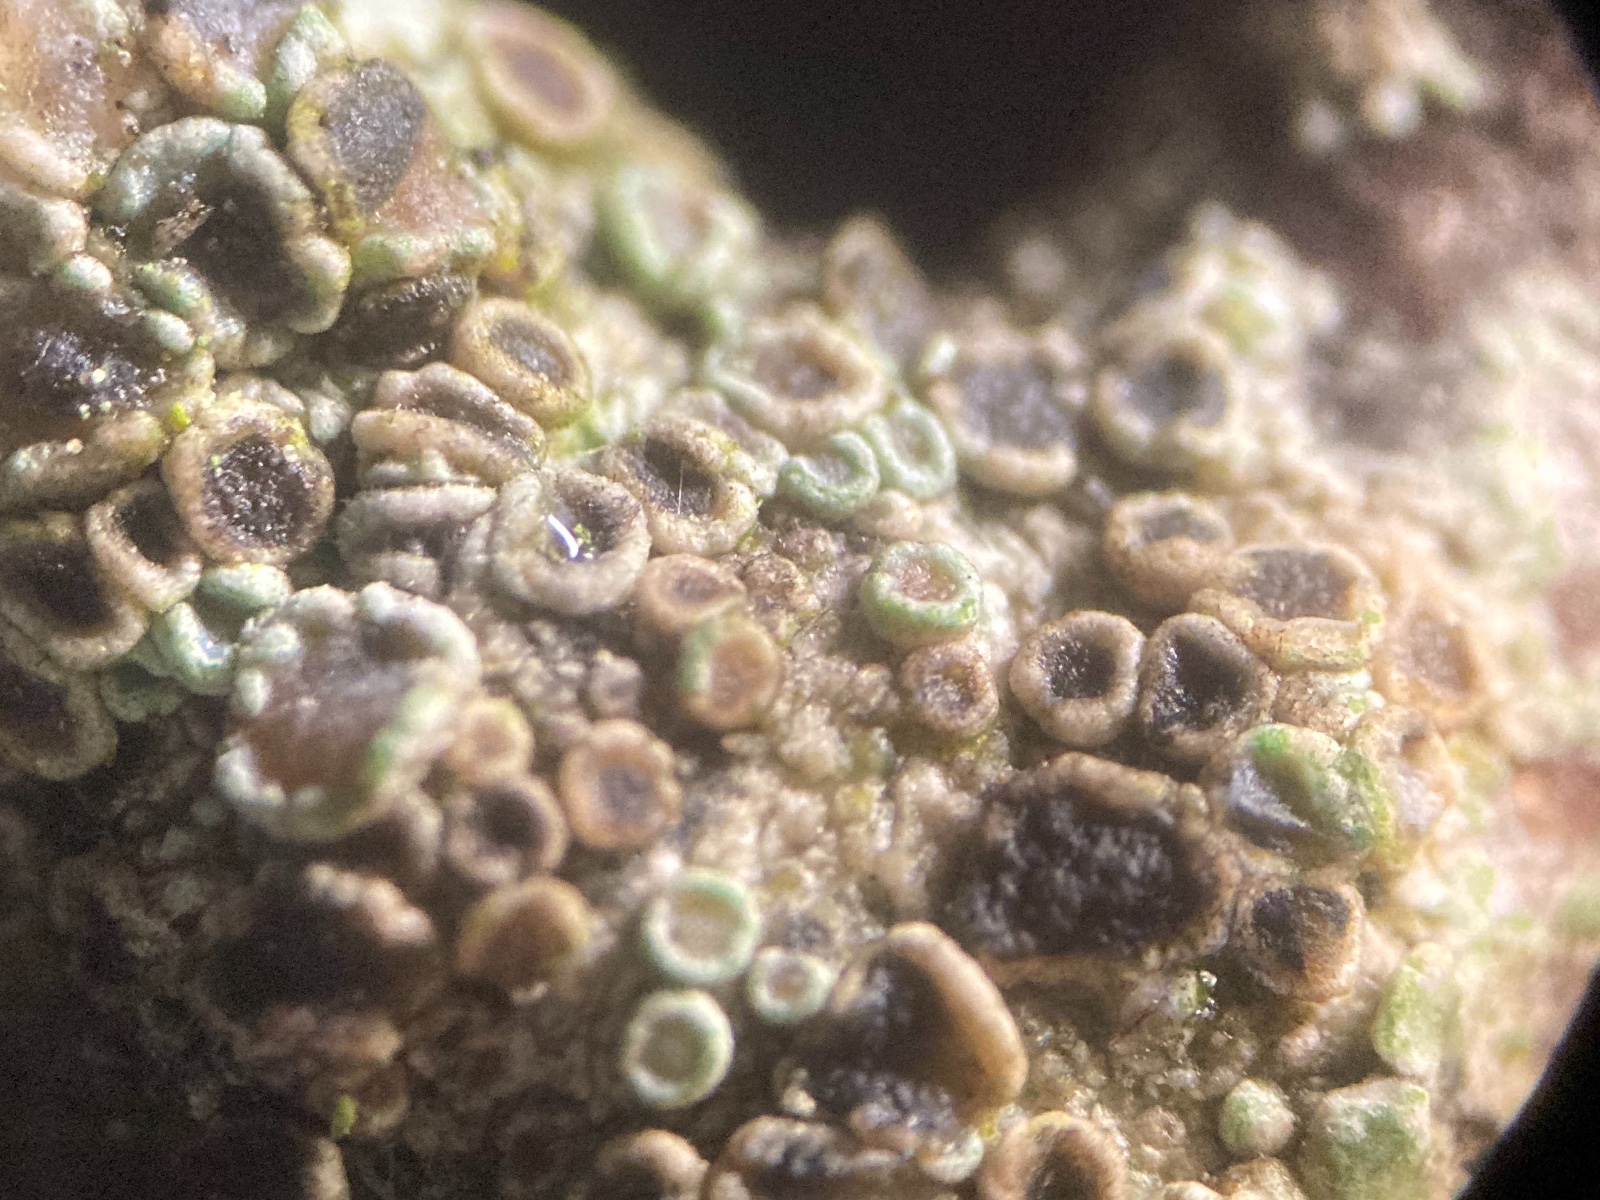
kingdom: Fungi
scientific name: Fungi
